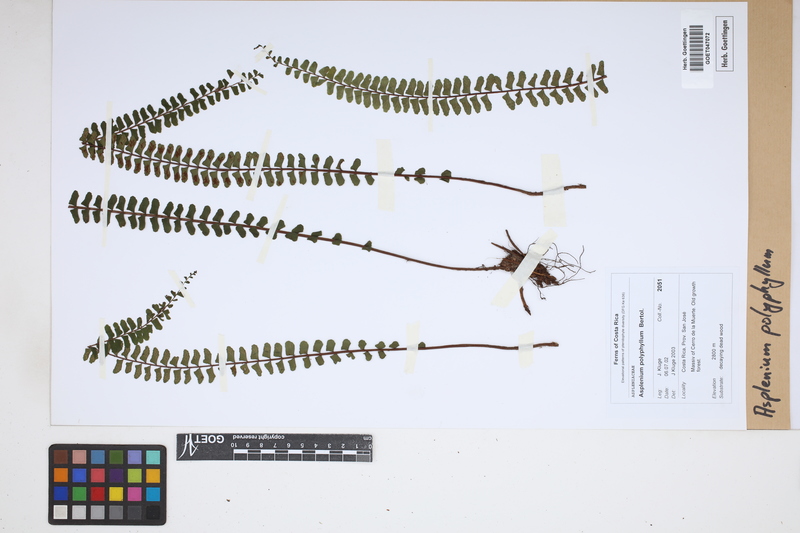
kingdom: Plantae
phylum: Tracheophyta
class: Polypodiopsida
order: Polypodiales
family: Aspleniaceae
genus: Asplenium
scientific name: Asplenium polyphyllum
